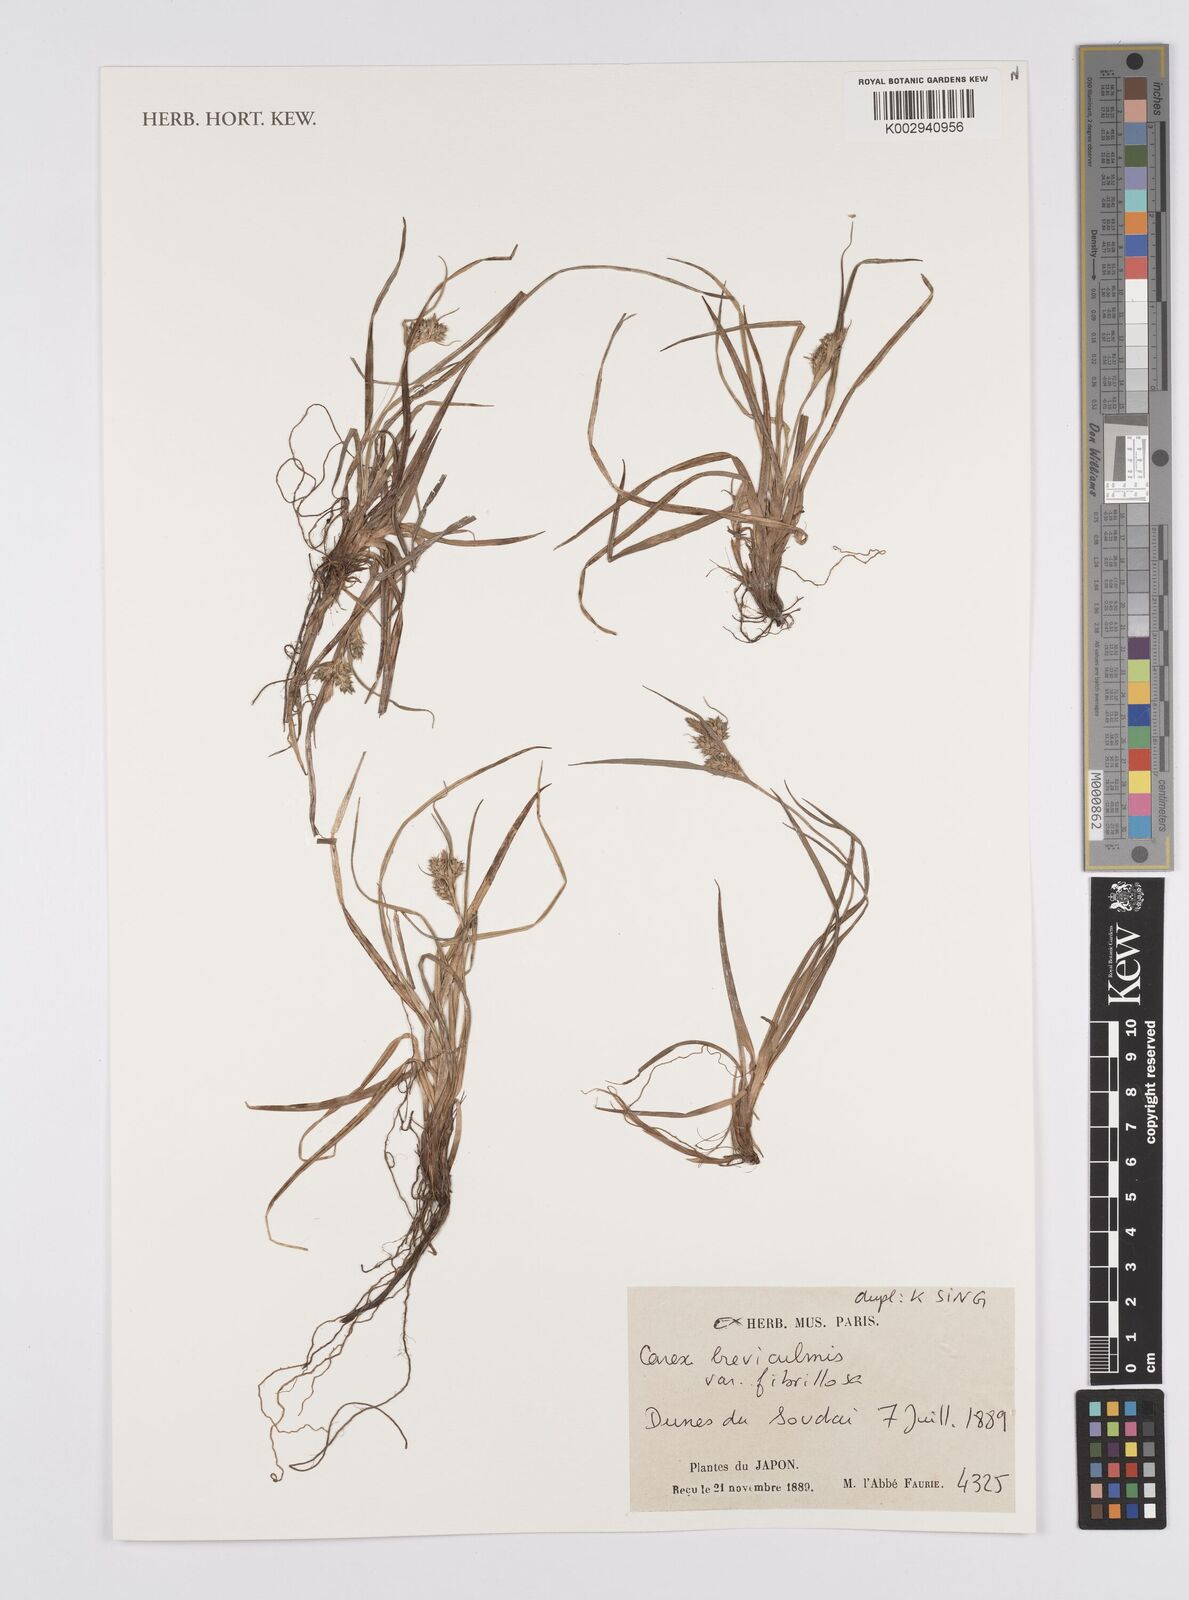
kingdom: Plantae
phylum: Tracheophyta
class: Liliopsida
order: Poales
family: Cyperaceae
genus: Carex
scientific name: Carex fibrillosa
